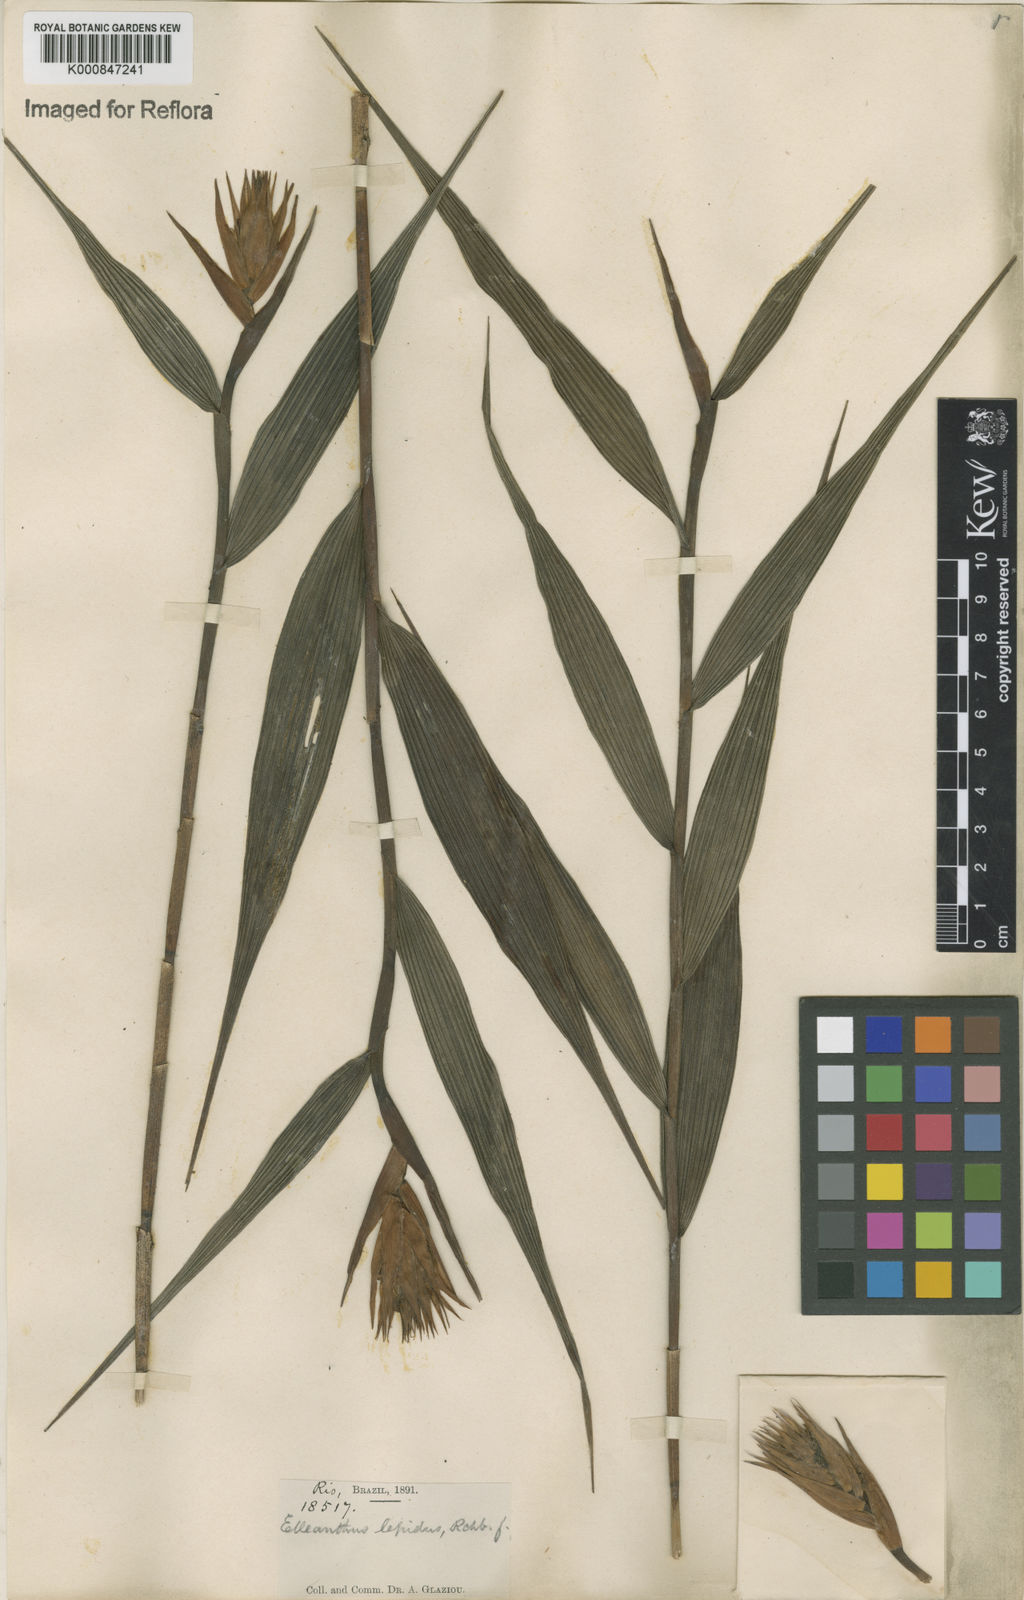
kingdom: Plantae
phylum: Tracheophyta
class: Liliopsida
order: Asparagales
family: Orchidaceae
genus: Elleanthus
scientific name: Elleanthus caravata
